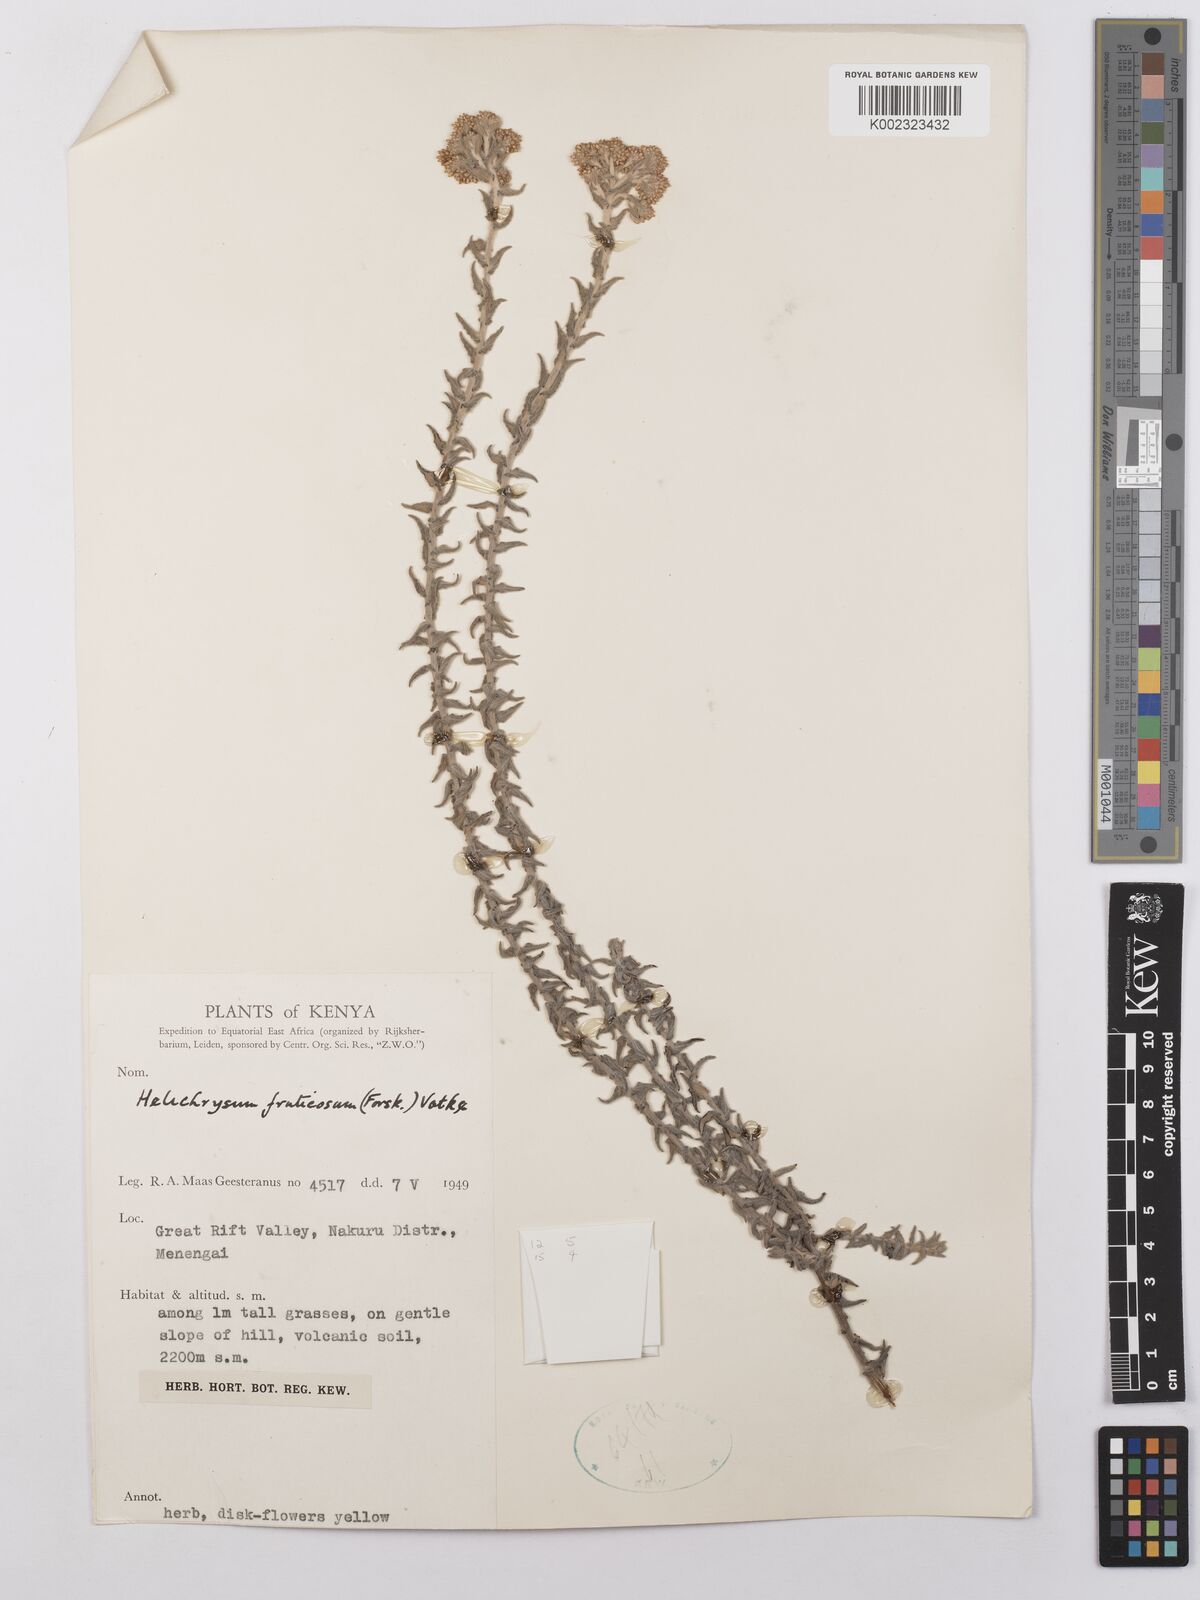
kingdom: Plantae
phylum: Tracheophyta
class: Magnoliopsida
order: Asterales
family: Asteraceae
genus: Helichrysum
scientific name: Helichrysum forskahlii
